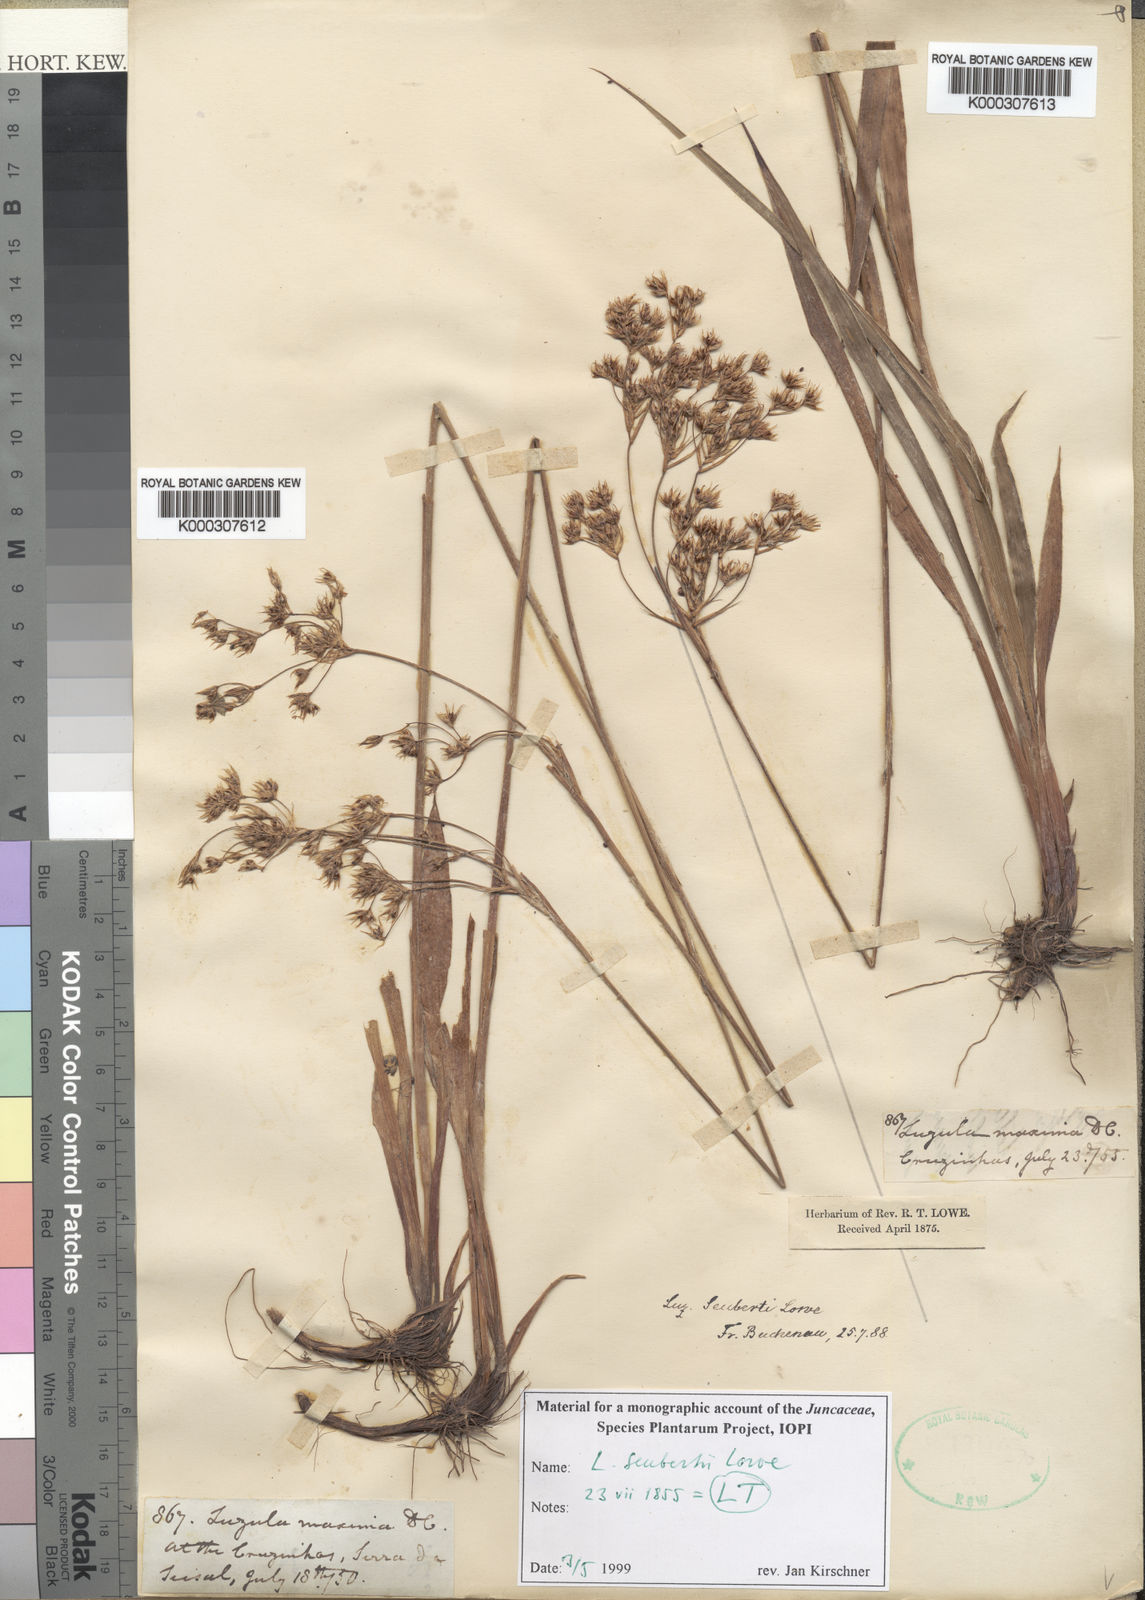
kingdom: Plantae
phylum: Tracheophyta
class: Liliopsida
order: Poales
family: Juncaceae
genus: Luzula
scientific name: Luzula seubertii
